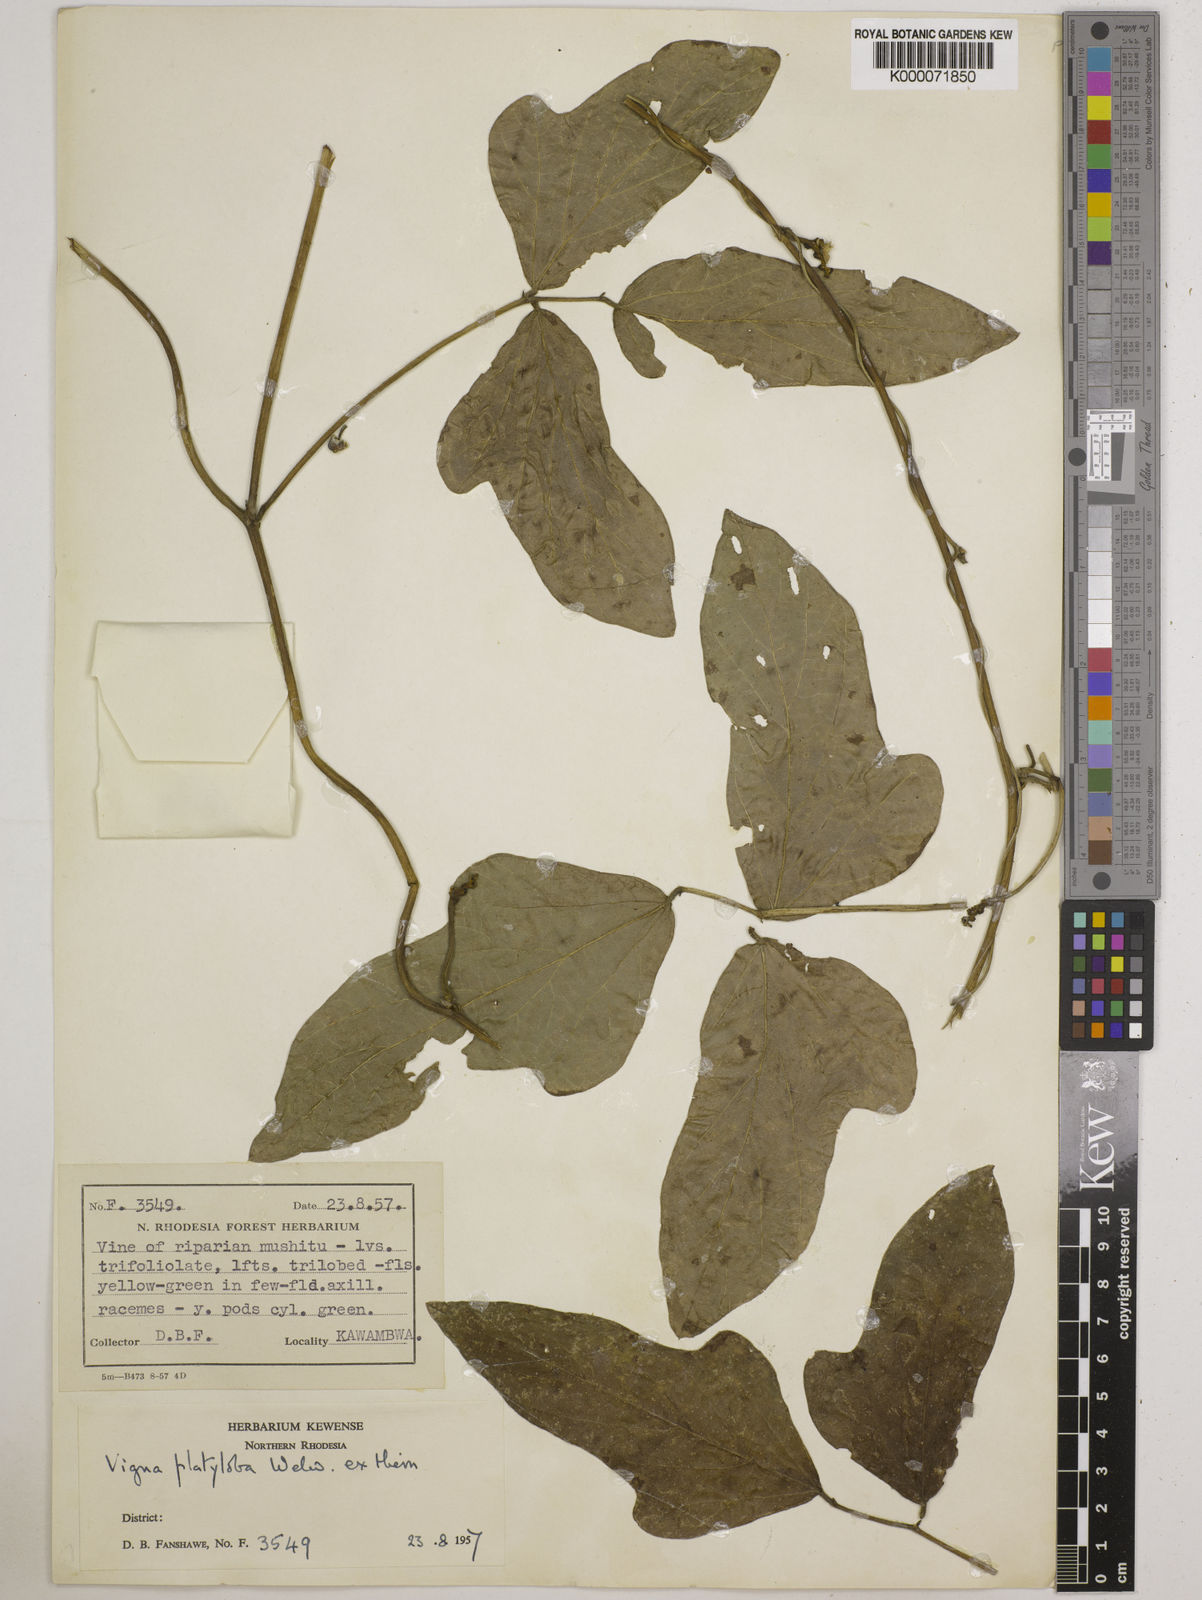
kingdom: Plantae
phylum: Tracheophyta
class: Magnoliopsida
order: Fabales
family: Fabaceae
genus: Vigna
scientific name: Vigna platyloba
